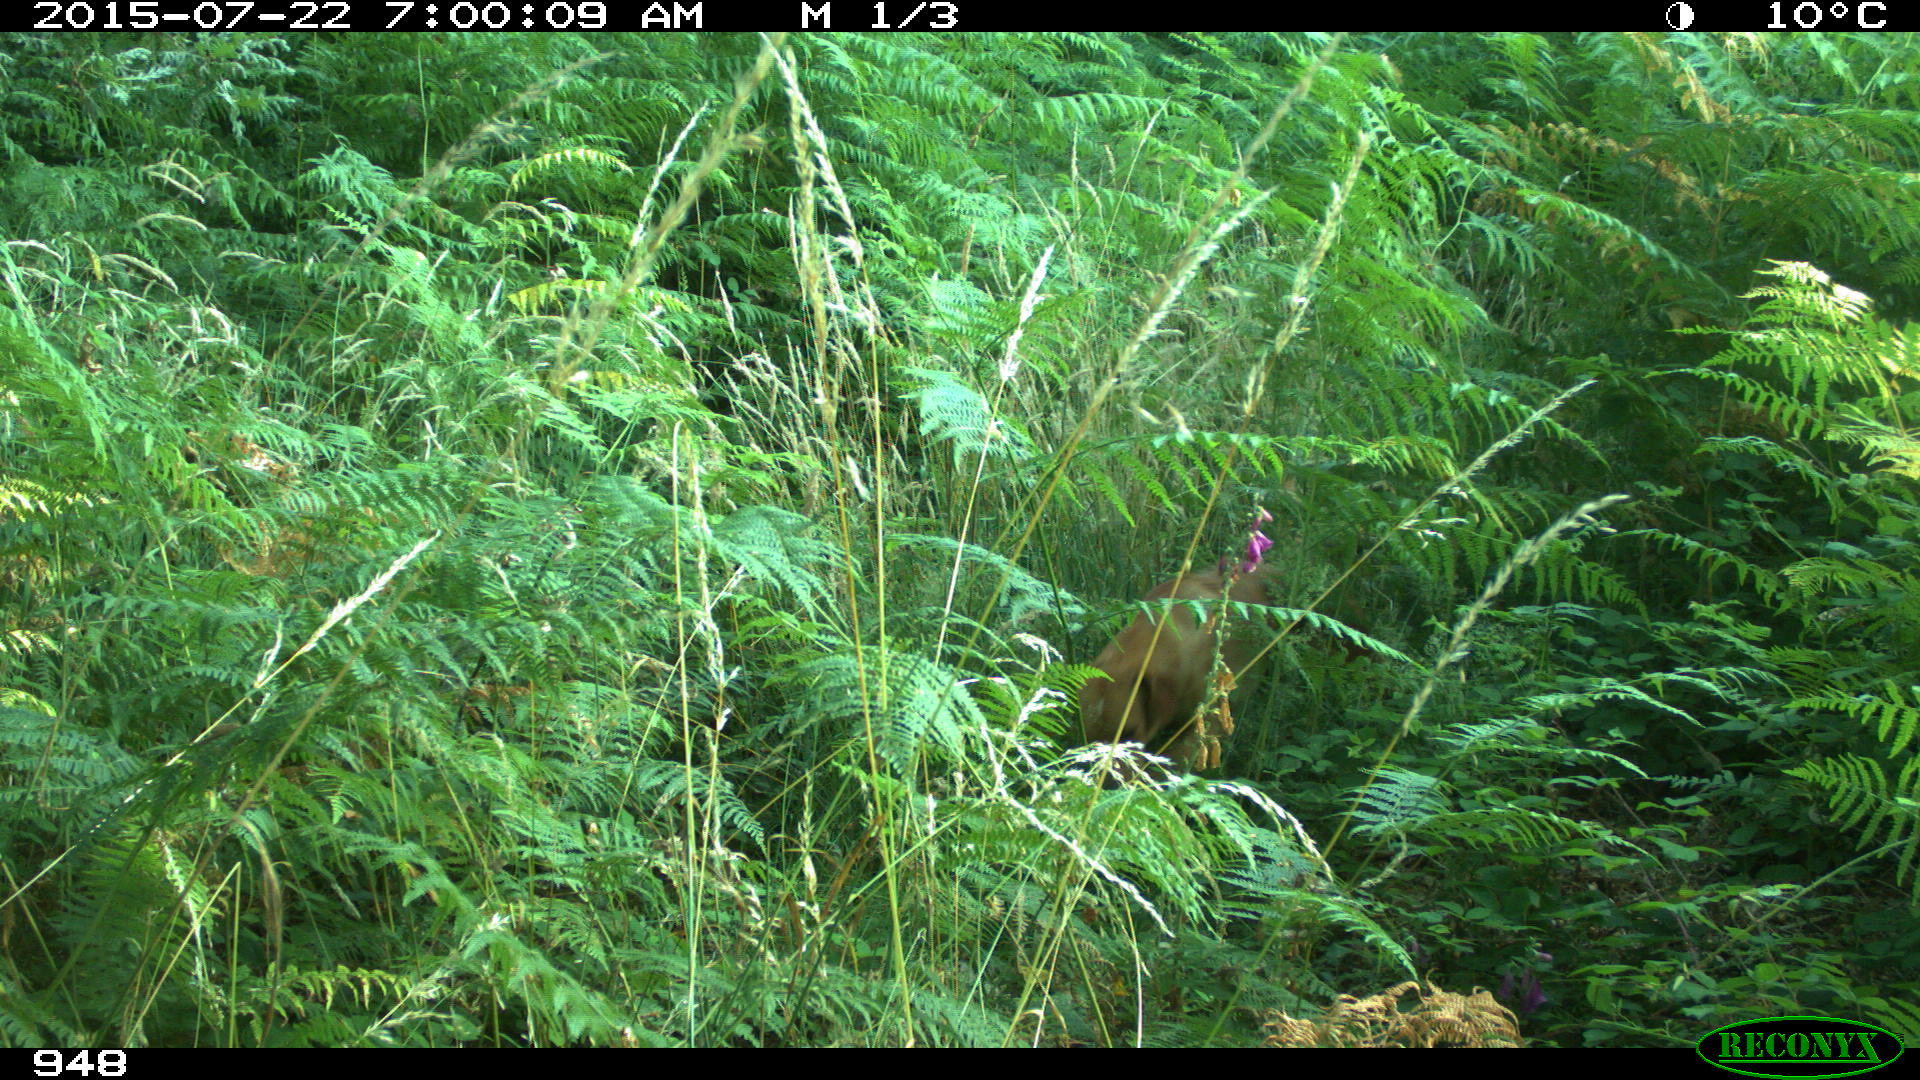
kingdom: Animalia
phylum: Chordata
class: Mammalia
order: Carnivora
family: Canidae
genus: Canis
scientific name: Canis lupus
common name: Gray wolf
